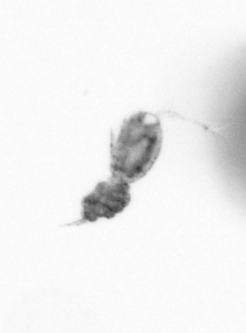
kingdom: Animalia
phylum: Arthropoda
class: Copepoda
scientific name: Copepoda
